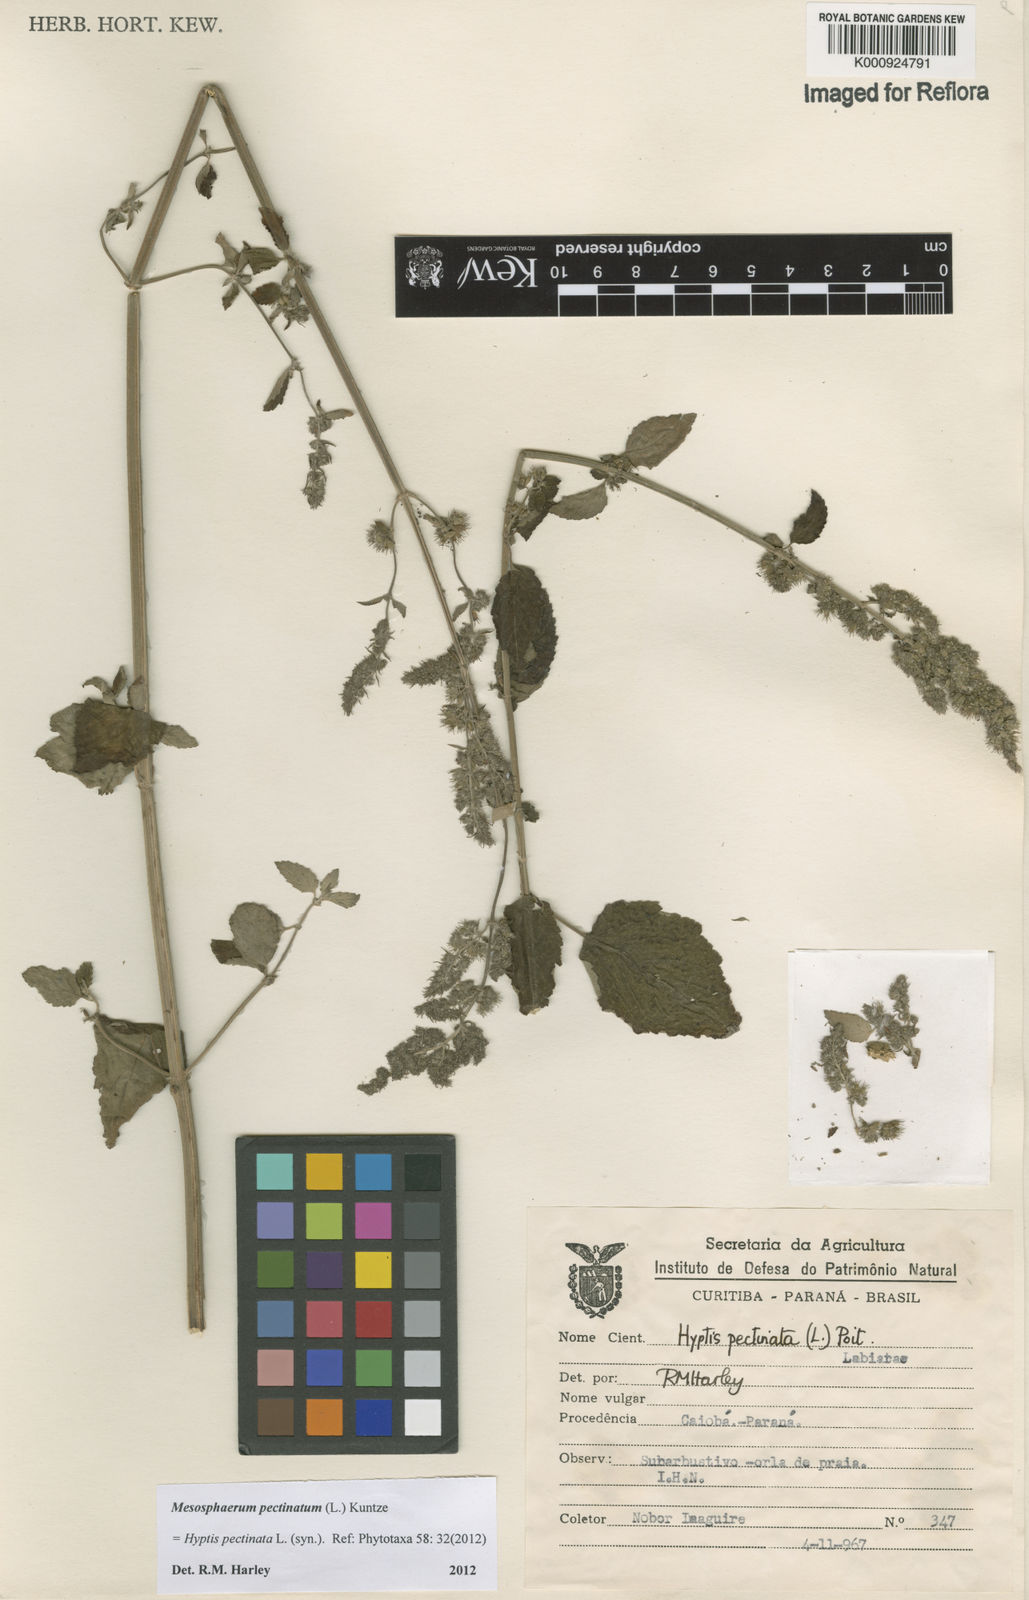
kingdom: Plantae
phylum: Tracheophyta
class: Magnoliopsida
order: Lamiales
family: Lamiaceae
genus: Mesosphaerum
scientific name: Mesosphaerum pectinatum
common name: Comb hyptis
